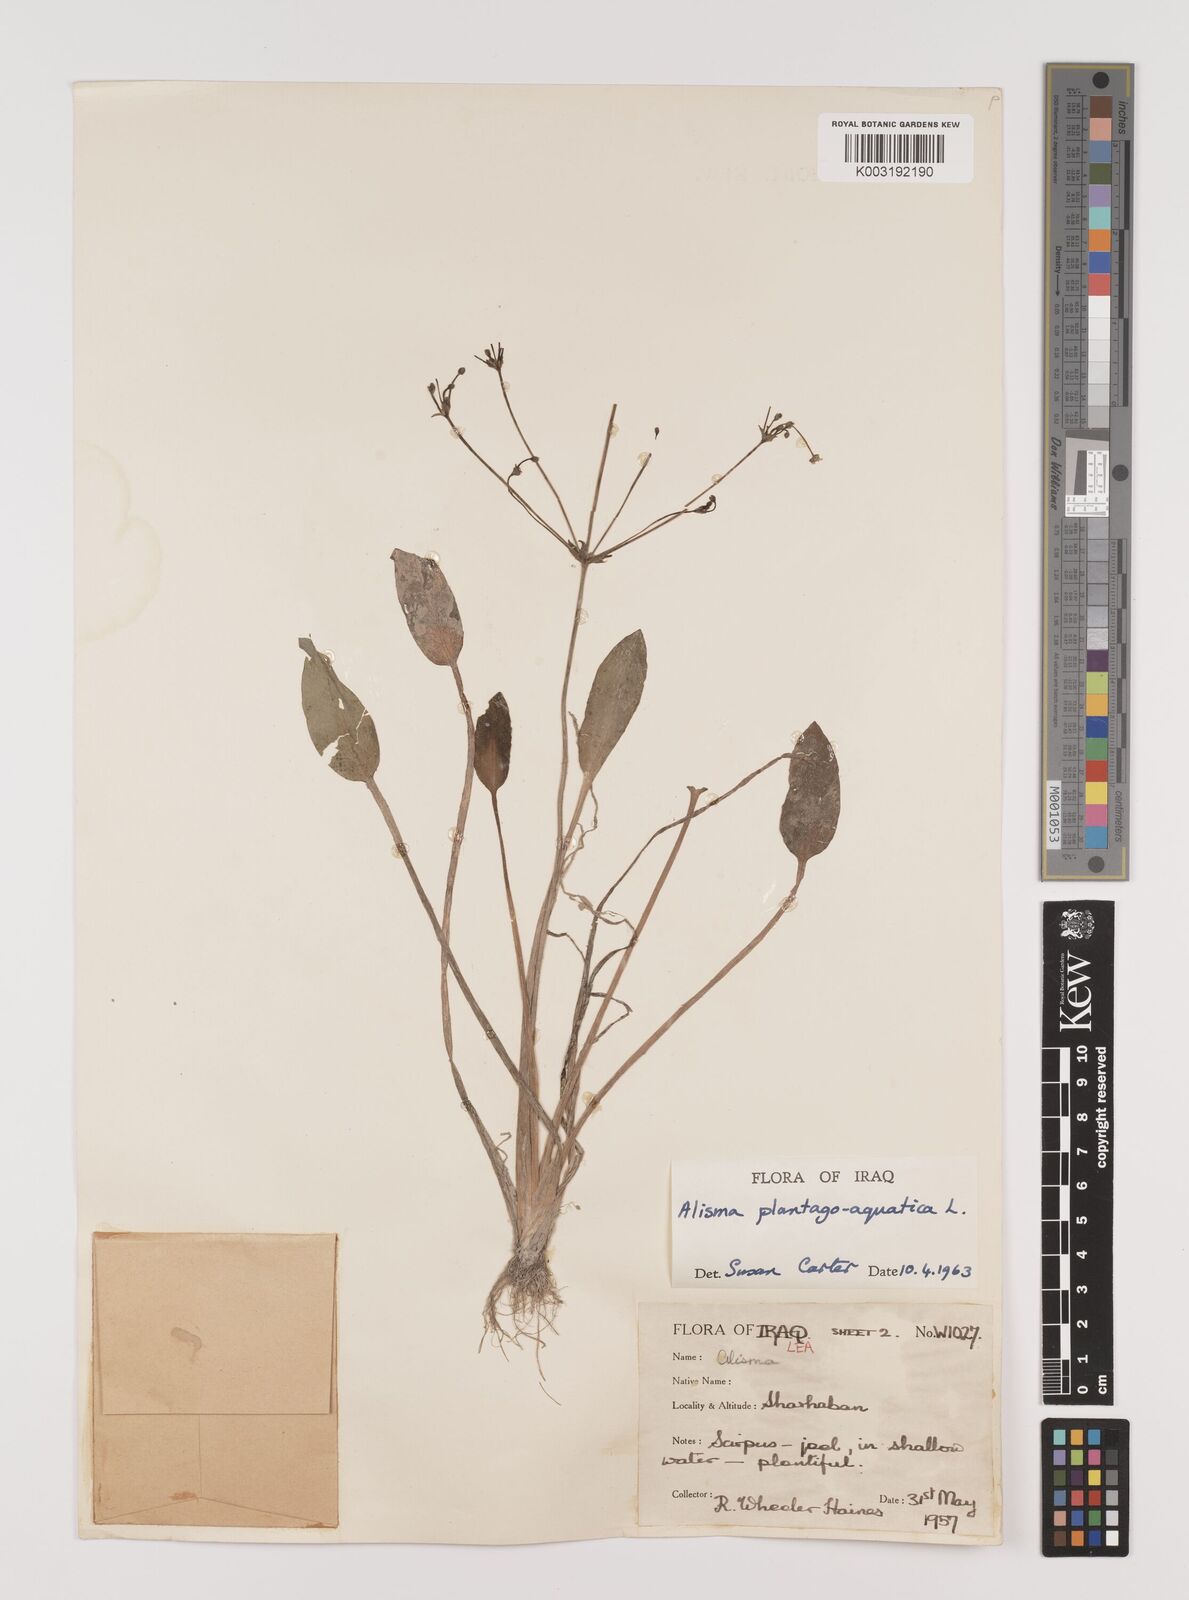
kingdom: Plantae
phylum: Tracheophyta
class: Liliopsida
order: Alismatales
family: Alismataceae
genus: Alisma
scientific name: Alisma plantago-aquatica
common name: Water-plantain
